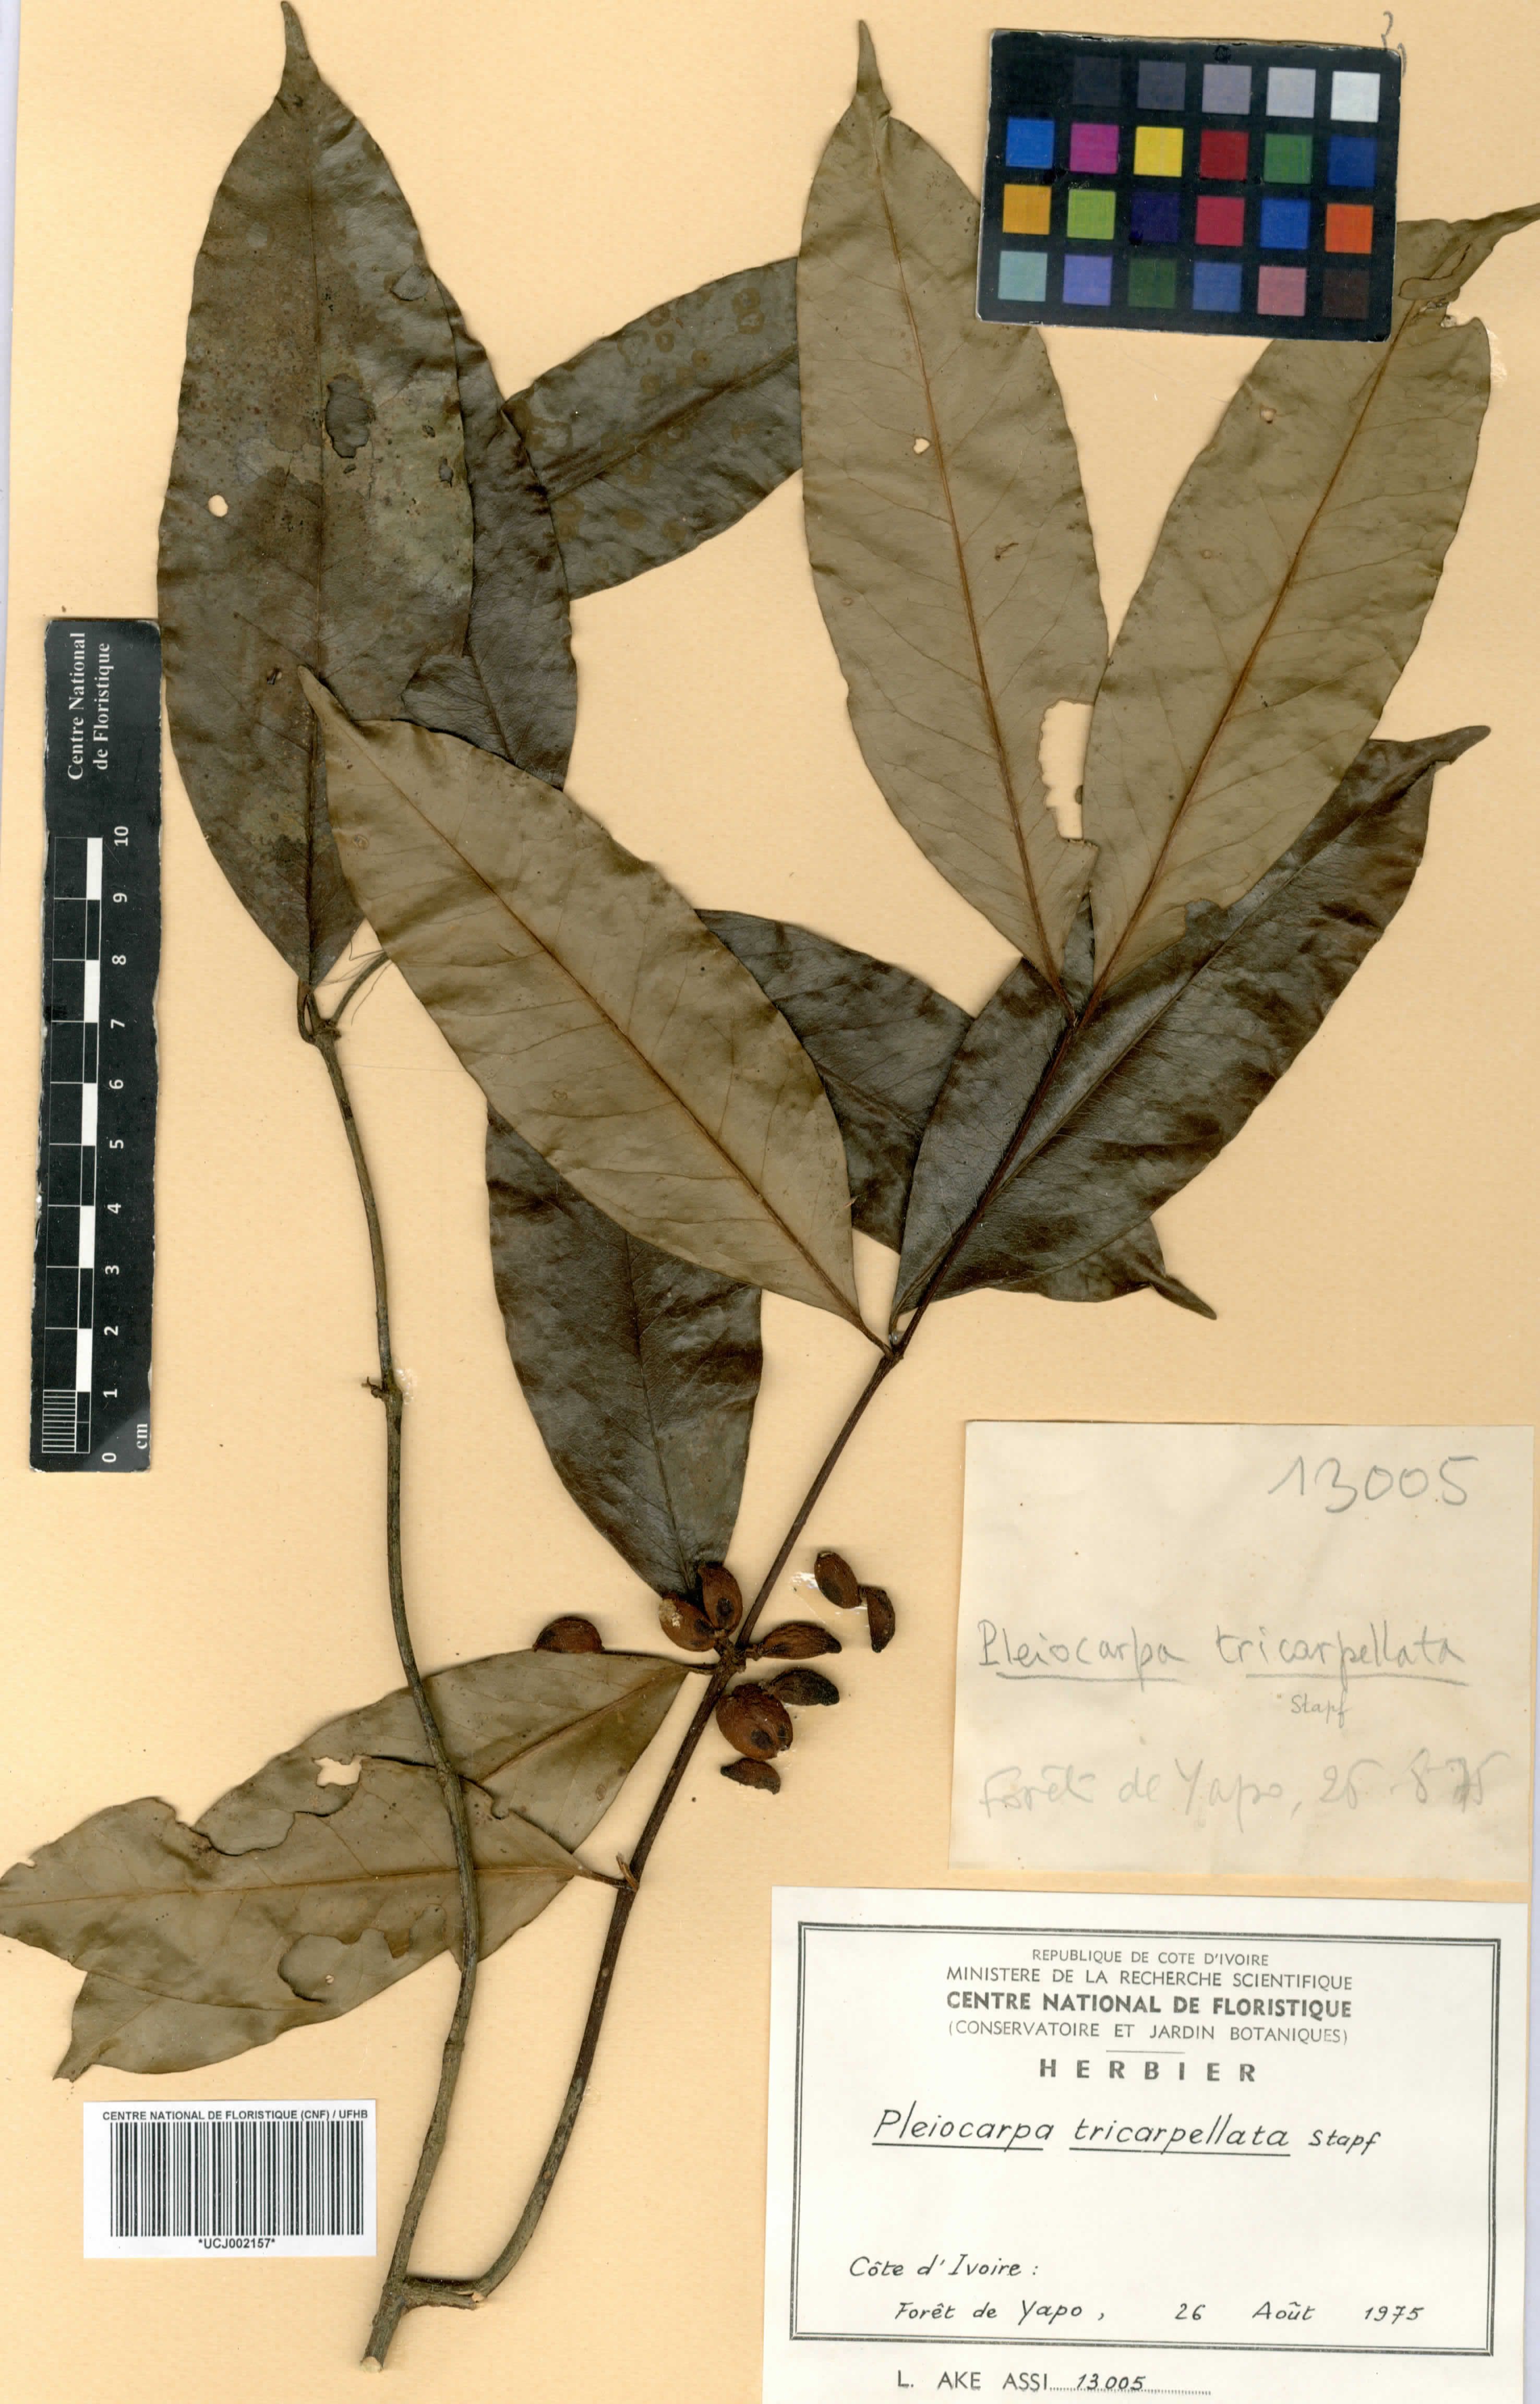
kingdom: Plantae
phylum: Tracheophyta
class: Magnoliopsida
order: Gentianales
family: Apocynaceae
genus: Pleiocarpa
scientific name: Pleiocarpa mutica
